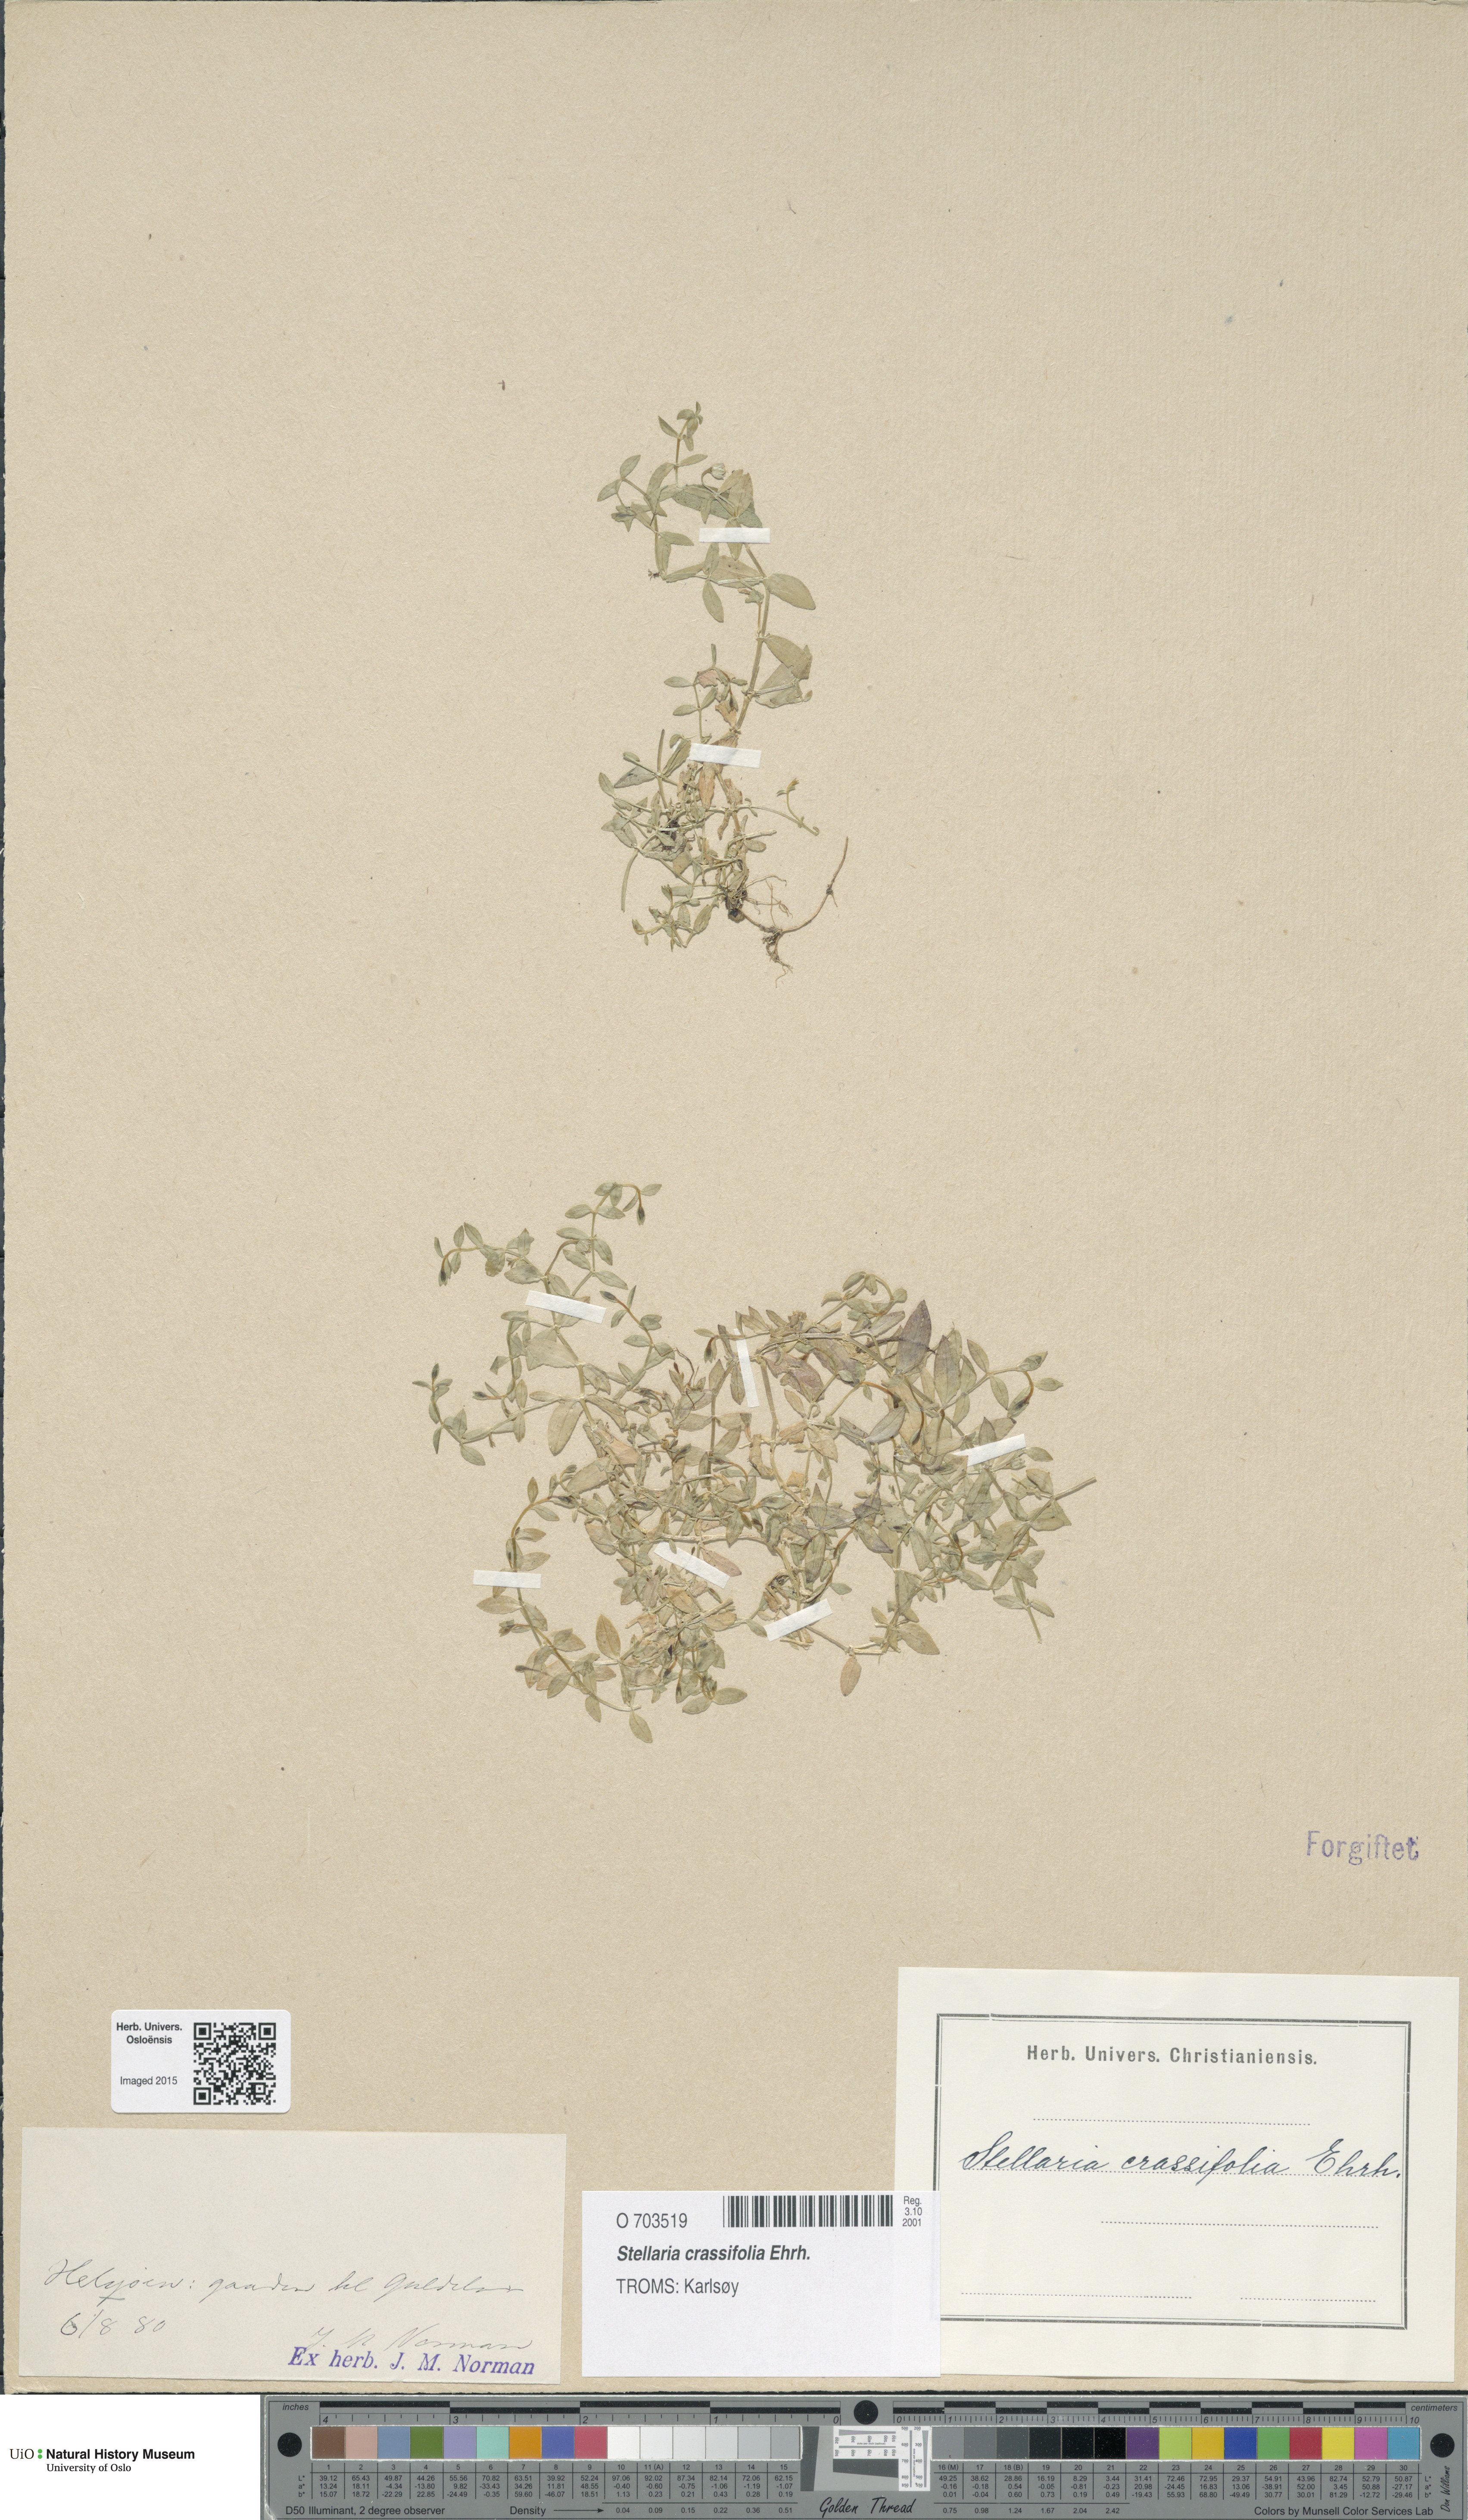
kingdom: Plantae
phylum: Tracheophyta
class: Magnoliopsida
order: Caryophyllales
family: Caryophyllaceae
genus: Stellaria
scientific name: Stellaria crassifolia
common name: Fleshy starwort
